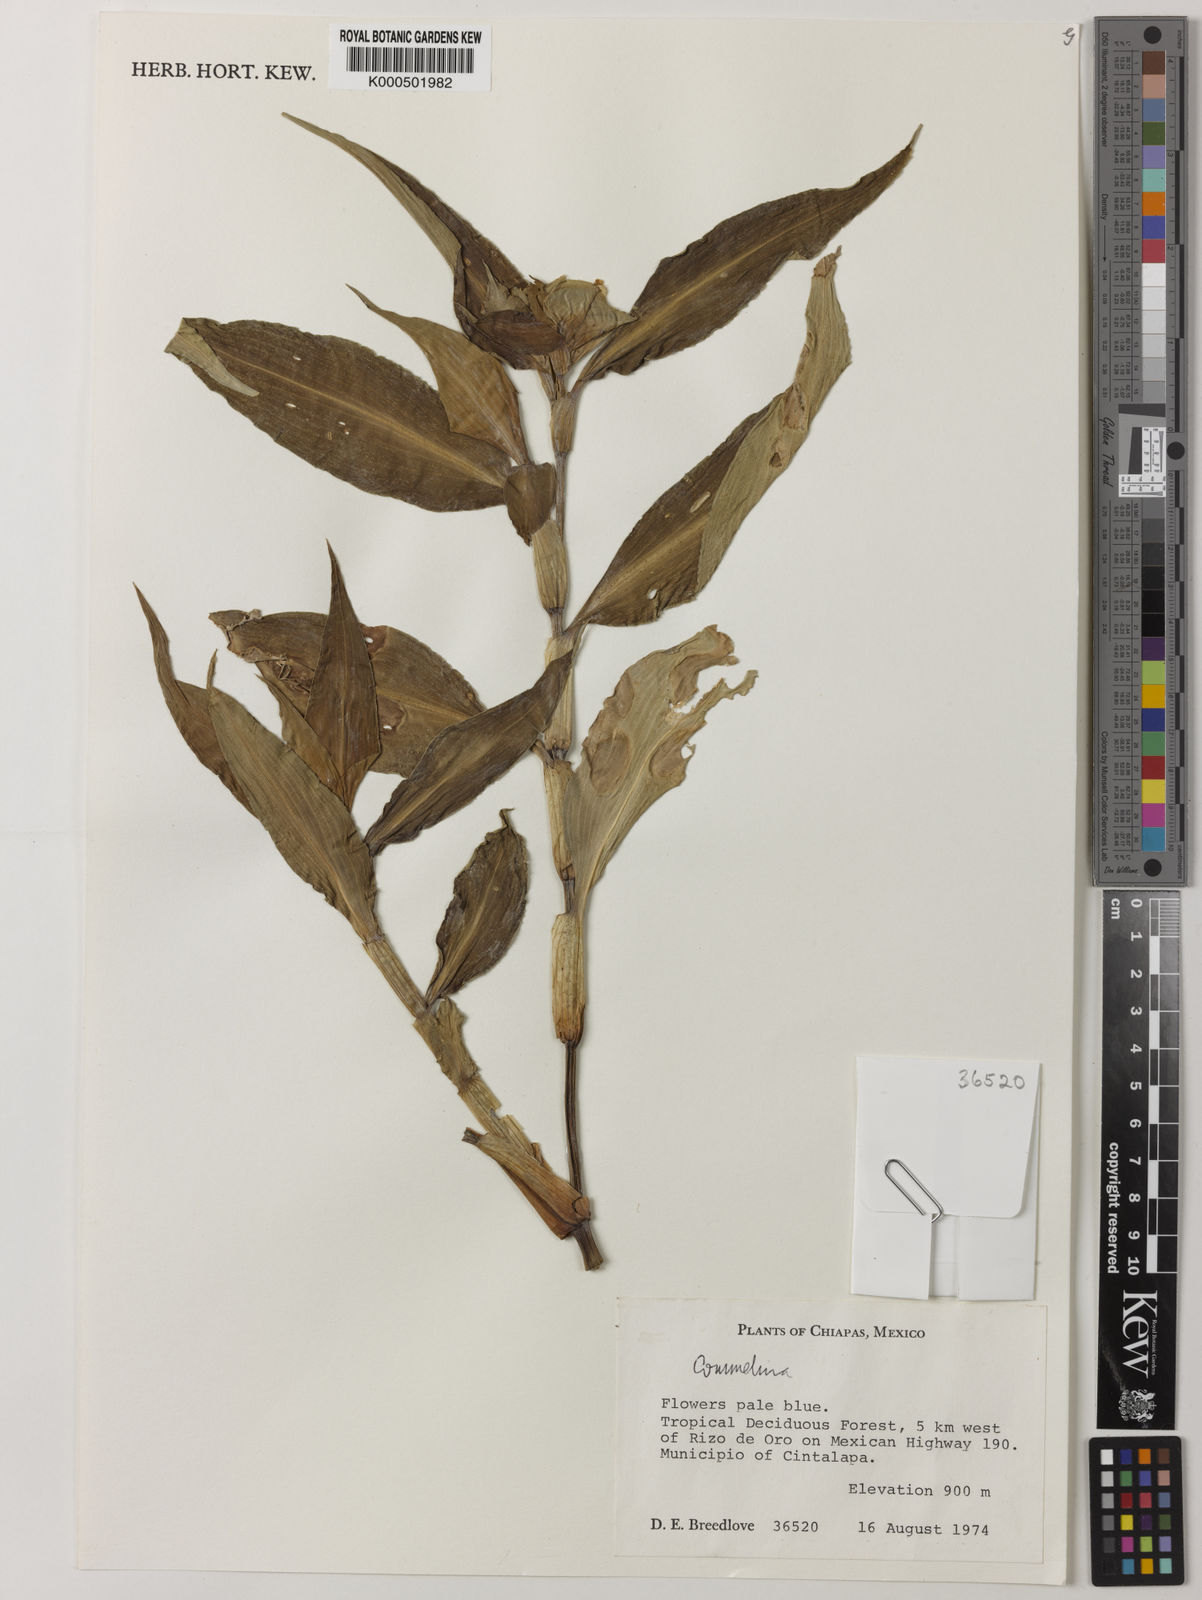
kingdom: Plantae
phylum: Tracheophyta
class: Liliopsida
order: Commelinales
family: Commelinaceae
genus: Commelina
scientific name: Commelina
